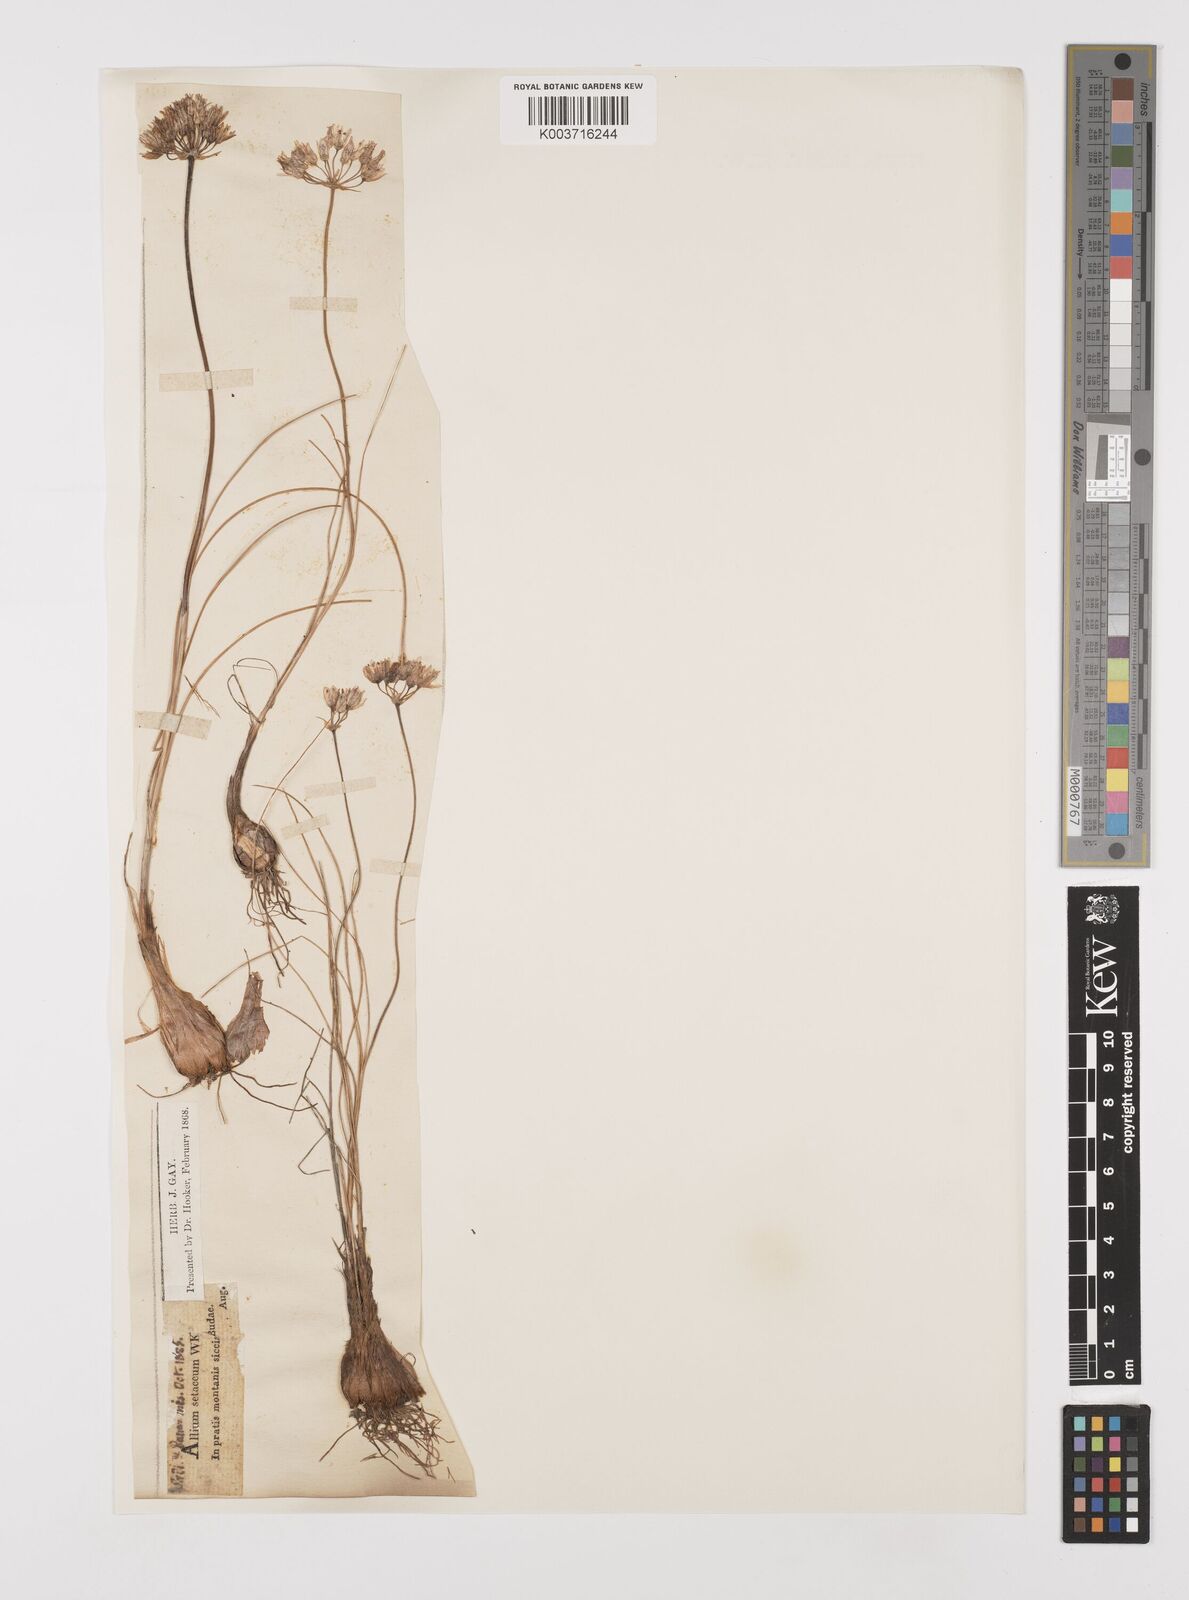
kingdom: Plantae
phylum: Tracheophyta
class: Liliopsida
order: Asparagales
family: Amaryllidaceae
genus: Allium
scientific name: Allium moschatum
